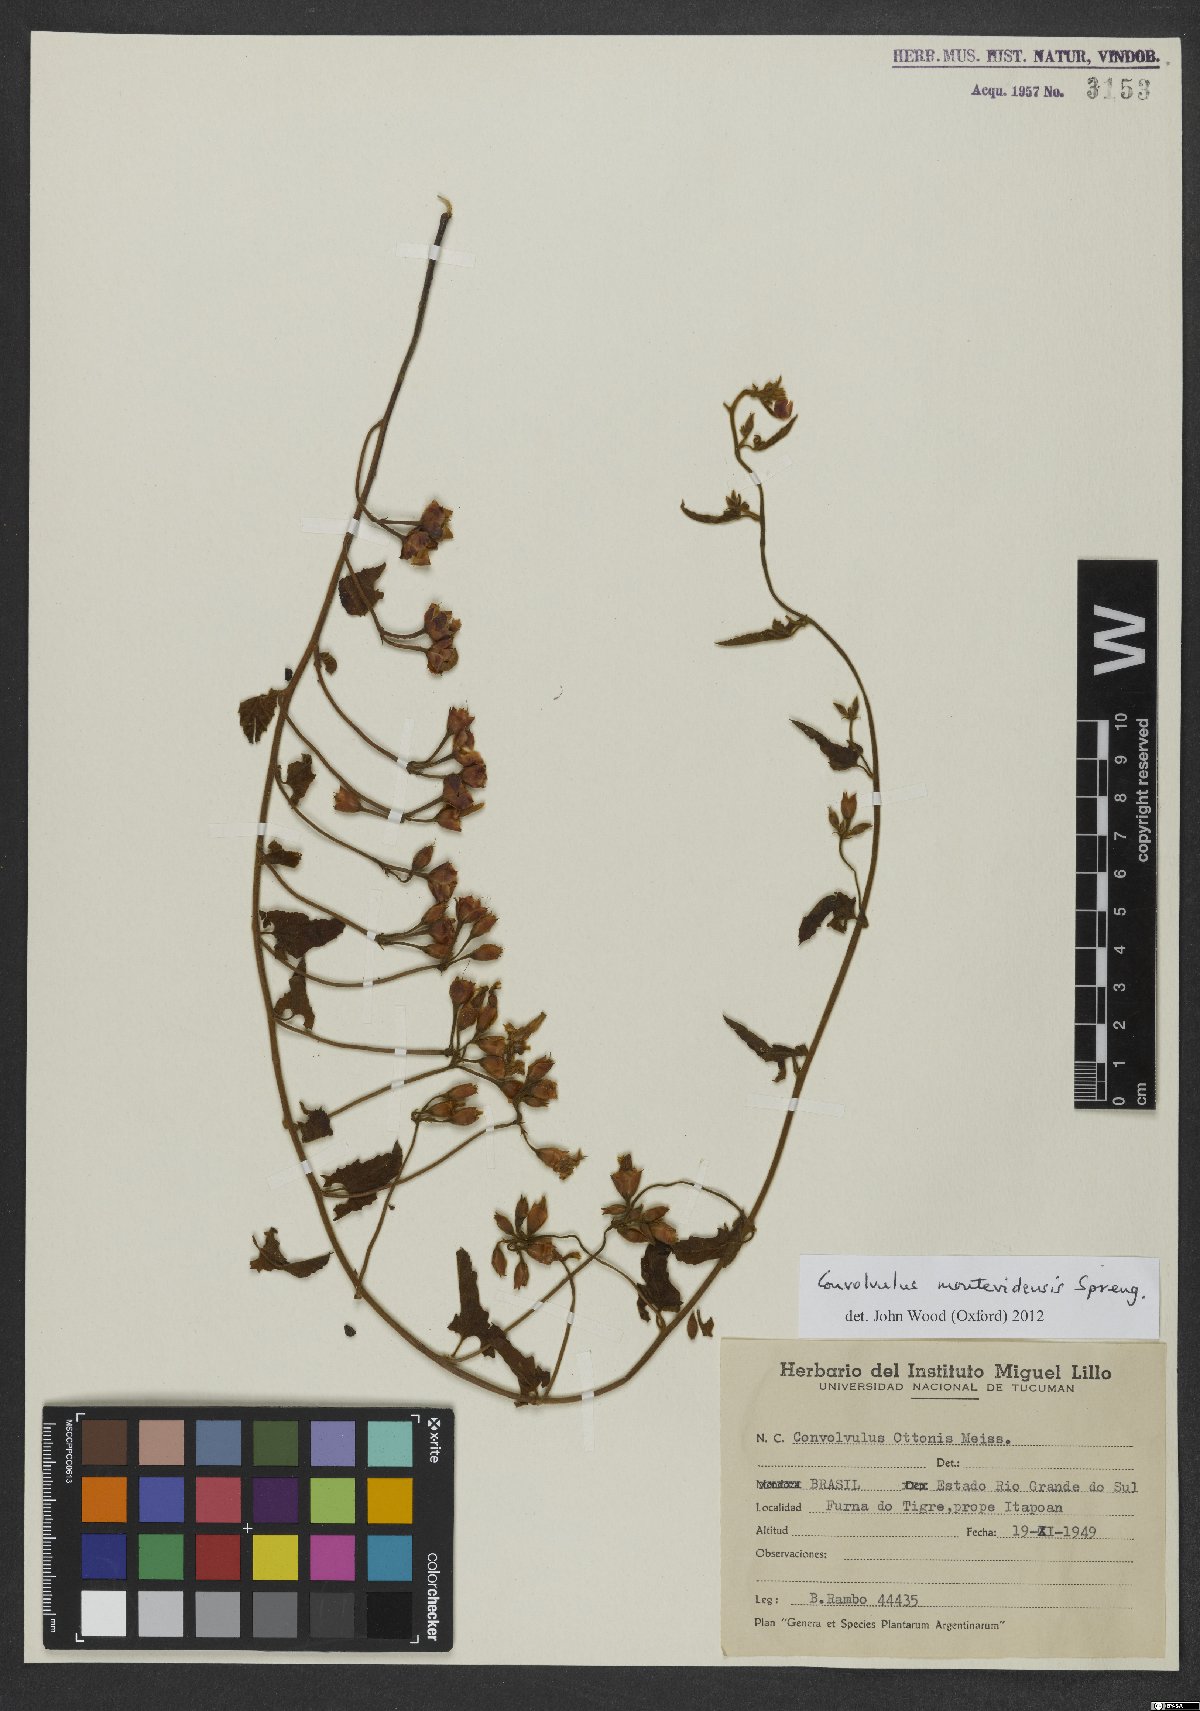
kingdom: Plantae
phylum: Tracheophyta
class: Magnoliopsida
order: Solanales
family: Convolvulaceae
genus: Convolvulus
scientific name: Convolvulus crenatifolius
